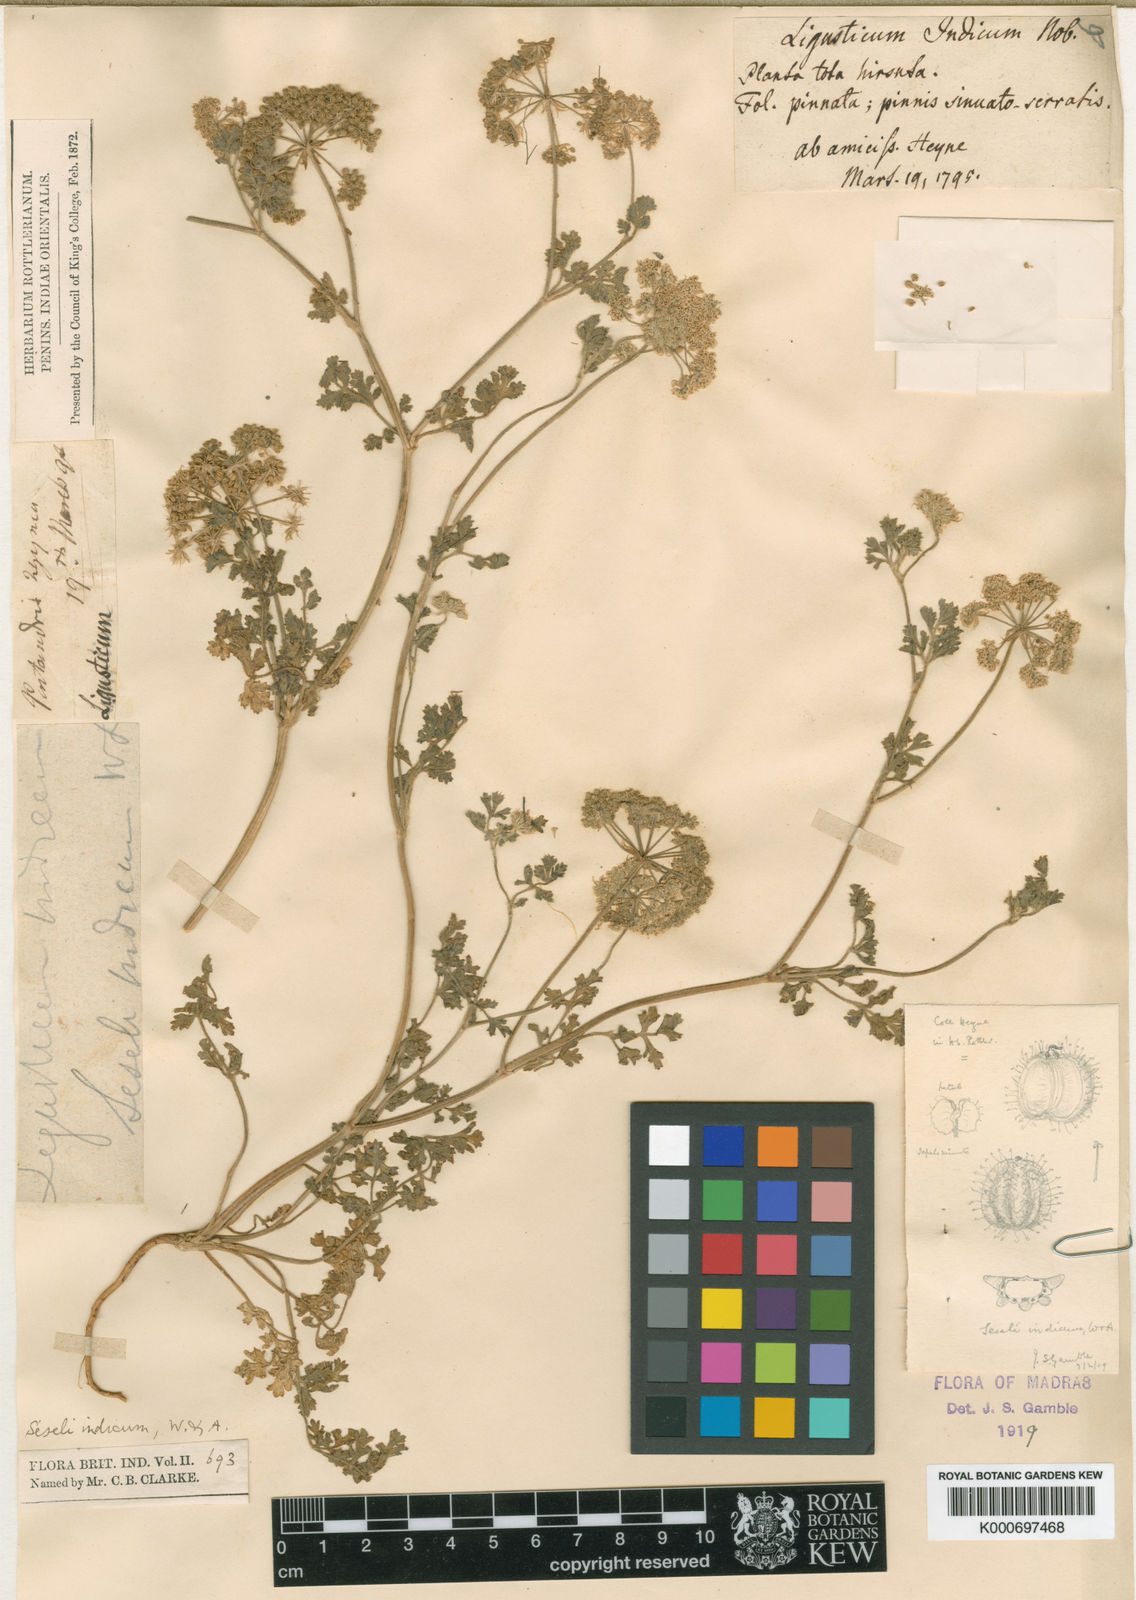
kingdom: Plantae
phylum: Tracheophyta
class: Magnoliopsida
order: Apiales
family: Apiaceae
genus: Psammogeton
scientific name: Psammogeton diffusum
